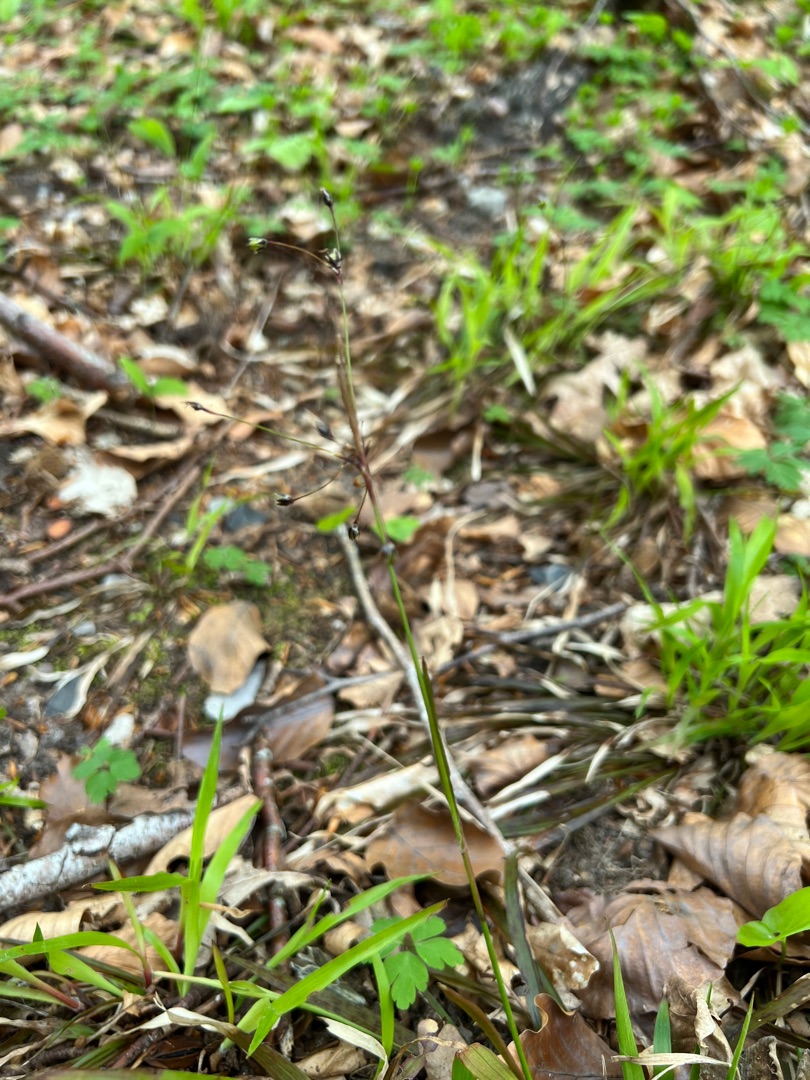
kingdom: Plantae
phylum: Tracheophyta
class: Liliopsida
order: Poales
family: Juncaceae
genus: Luzula
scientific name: Luzula pilosa
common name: Håret frytle
